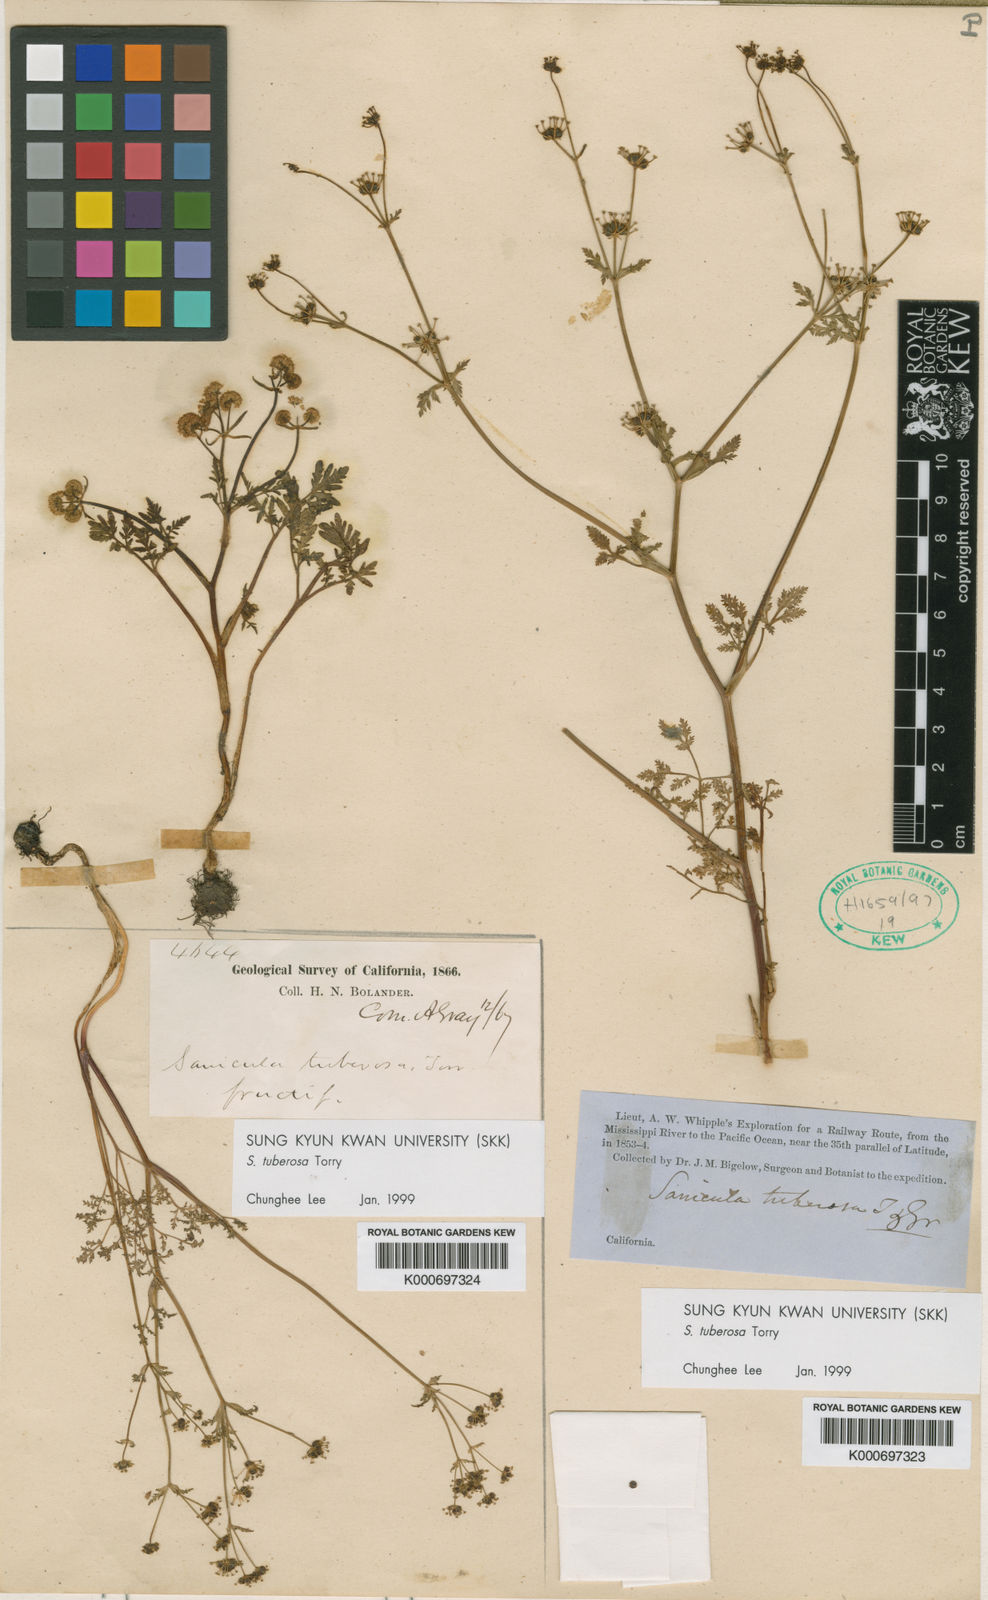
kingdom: Plantae
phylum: Tracheophyta
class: Magnoliopsida
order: Apiales
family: Apiaceae
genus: Sanicula
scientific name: Sanicula tuberosa
